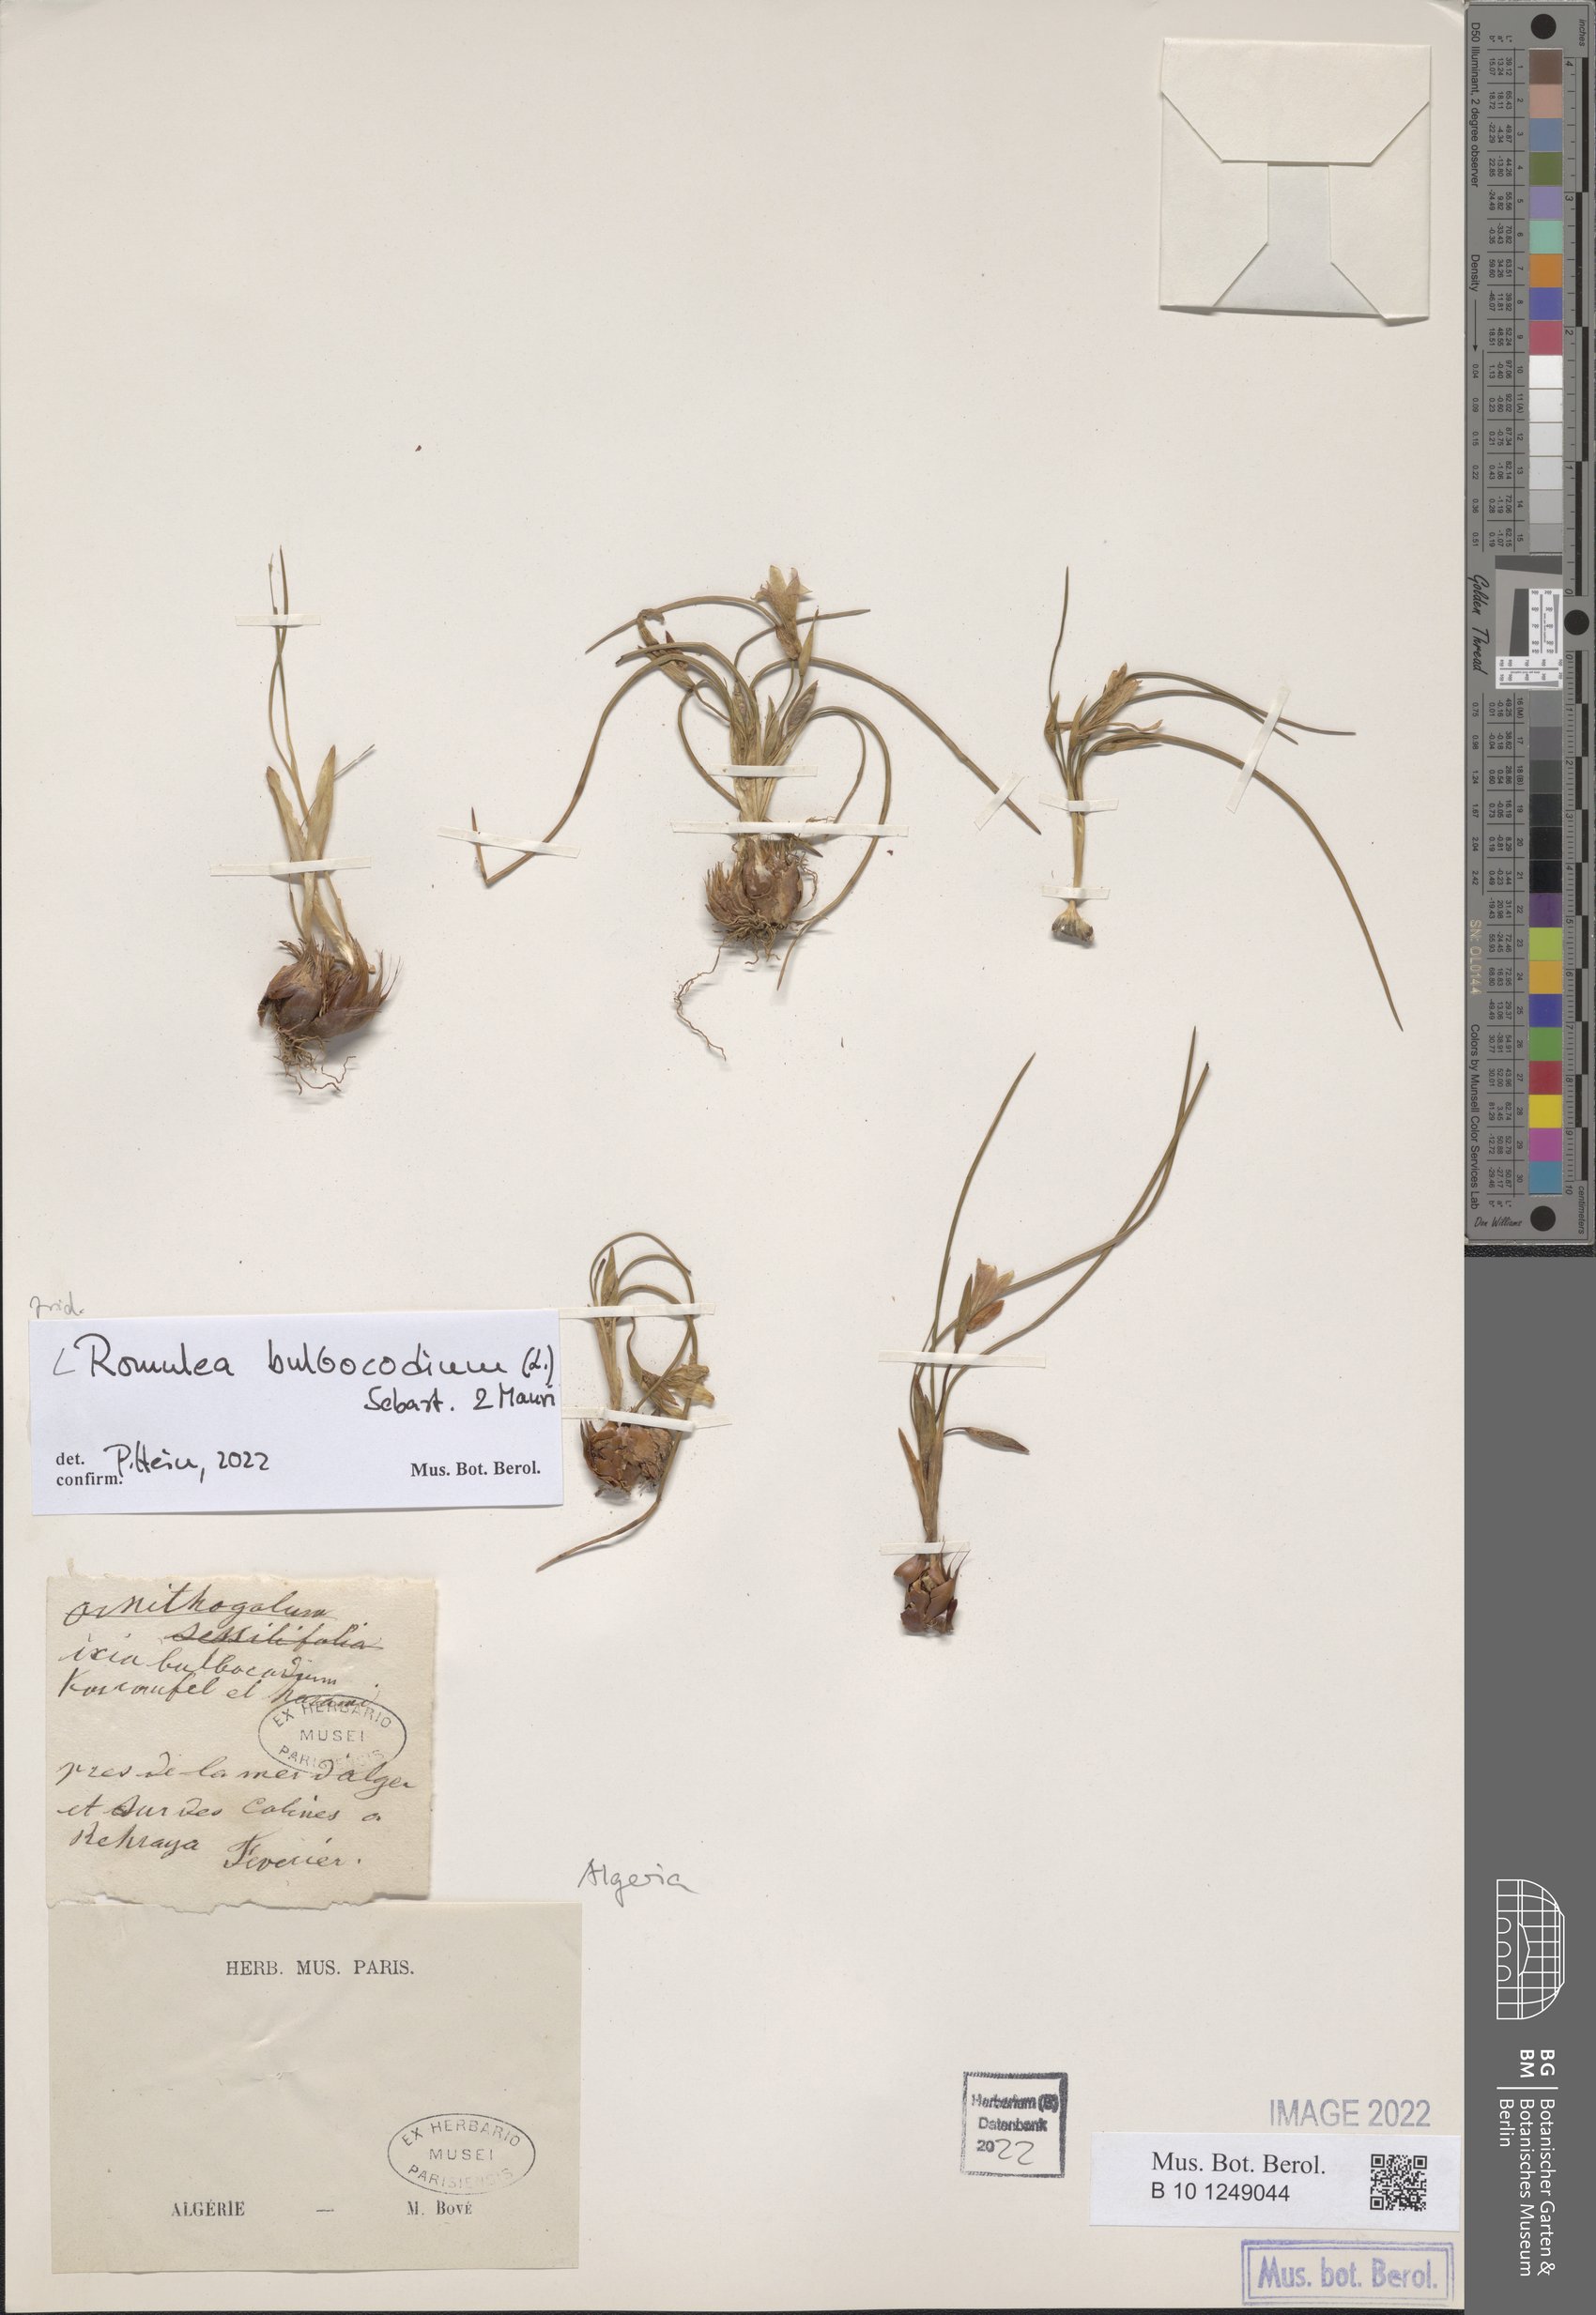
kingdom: Plantae
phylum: Tracheophyta
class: Liliopsida
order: Asparagales
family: Iridaceae
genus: Romulea
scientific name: Romulea bulbocodium
